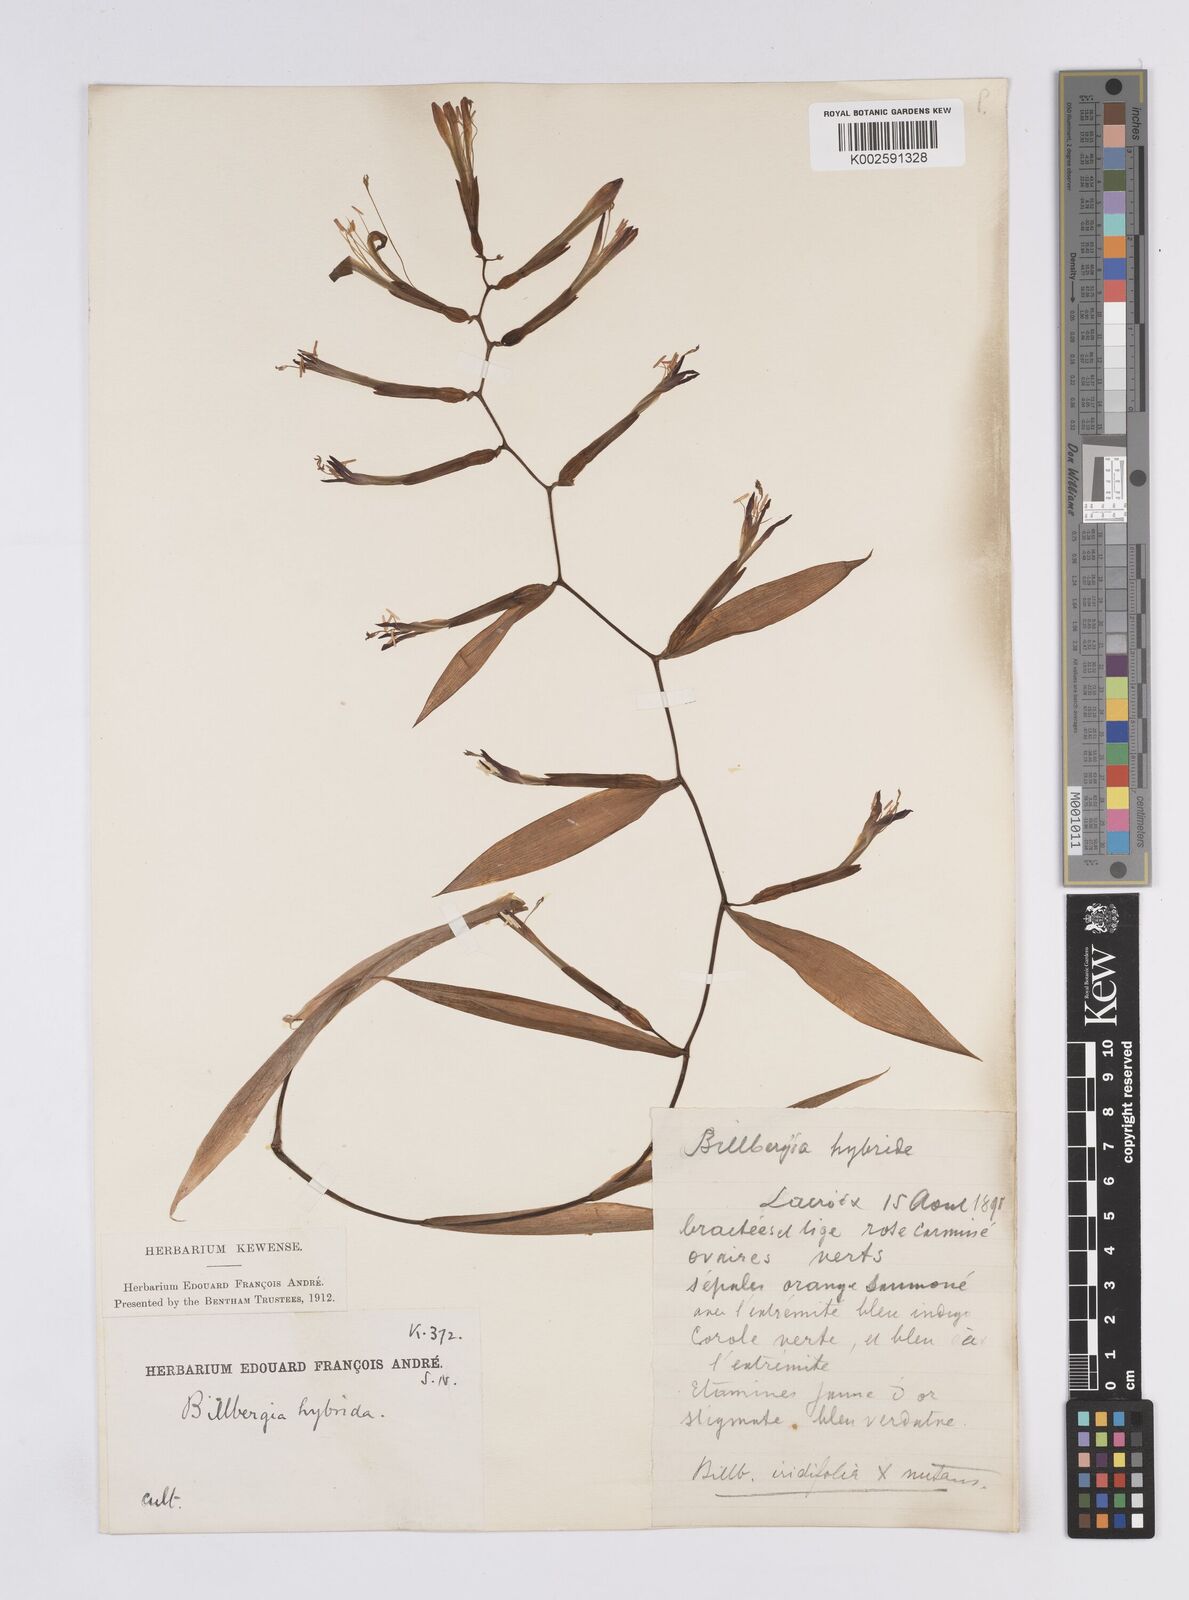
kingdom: Plantae
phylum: Tracheophyta
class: Liliopsida
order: Poales
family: Bromeliaceae
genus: Billbergia
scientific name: Billbergia
